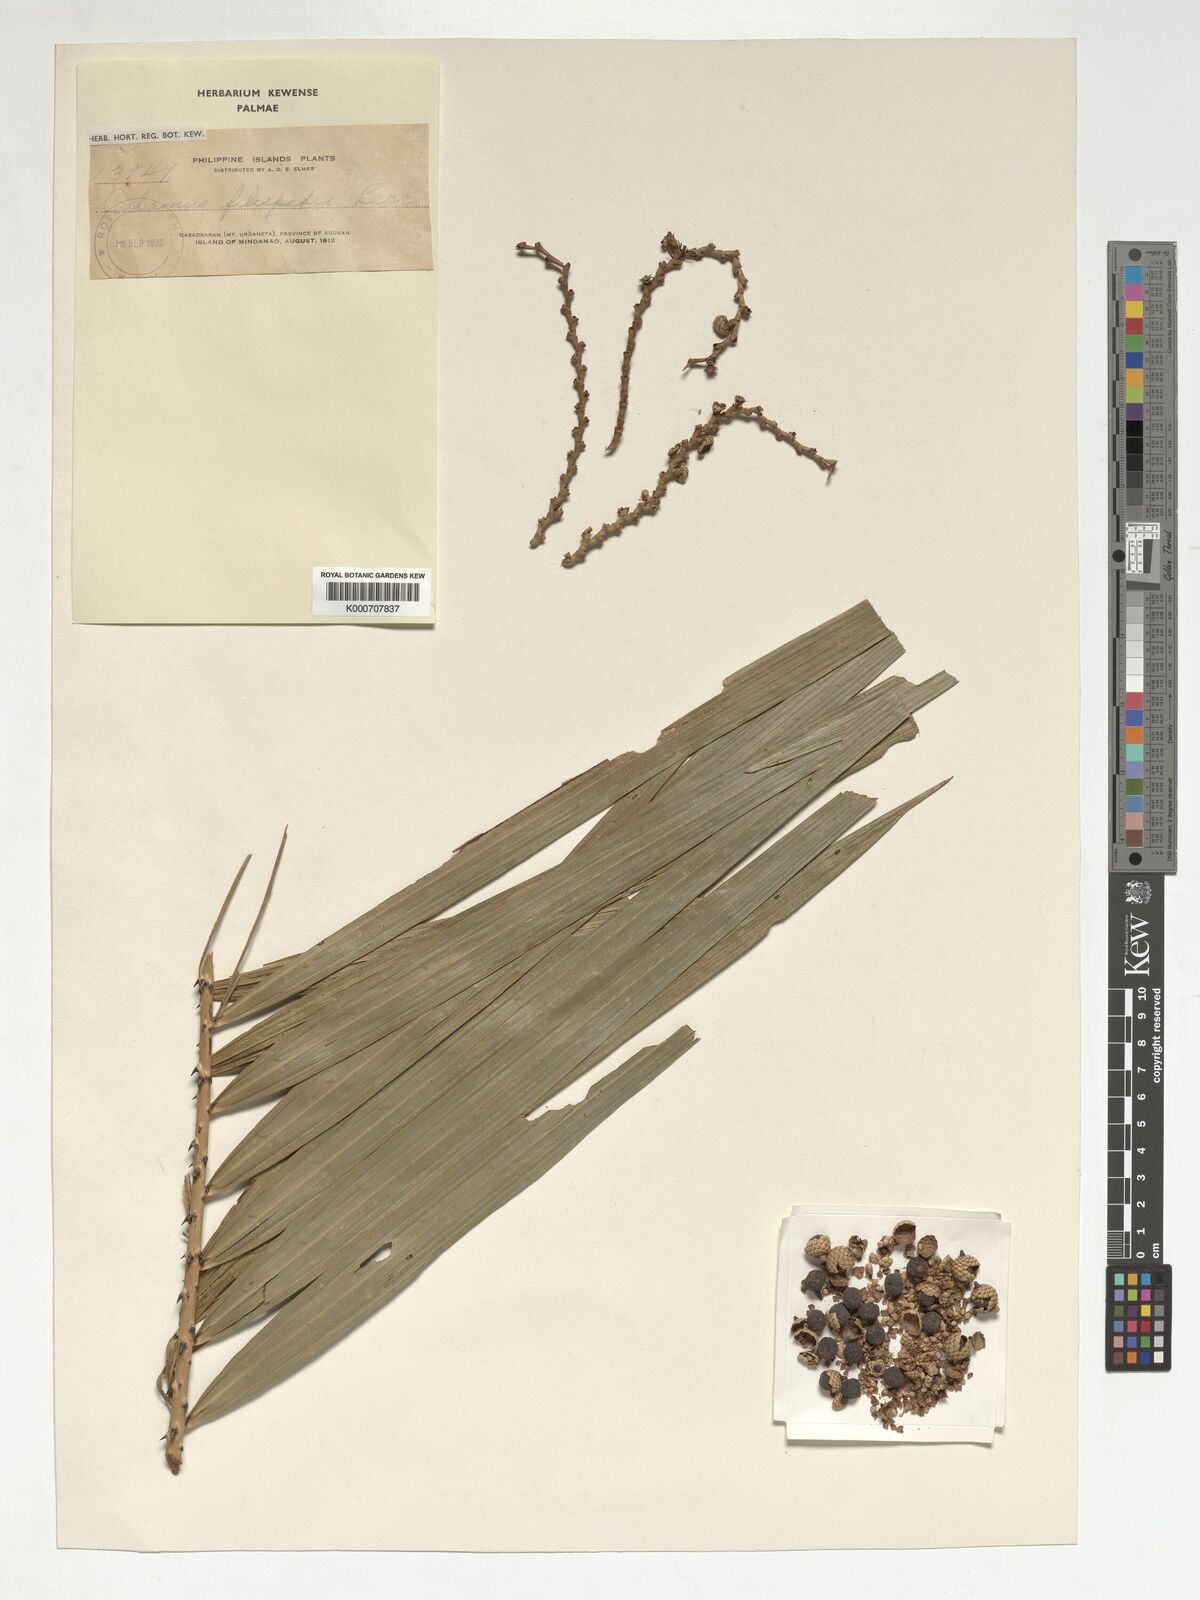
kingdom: Plantae
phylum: Tracheophyta
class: Liliopsida
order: Arecales
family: Arecaceae
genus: Calamus
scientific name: Calamus filispadix
